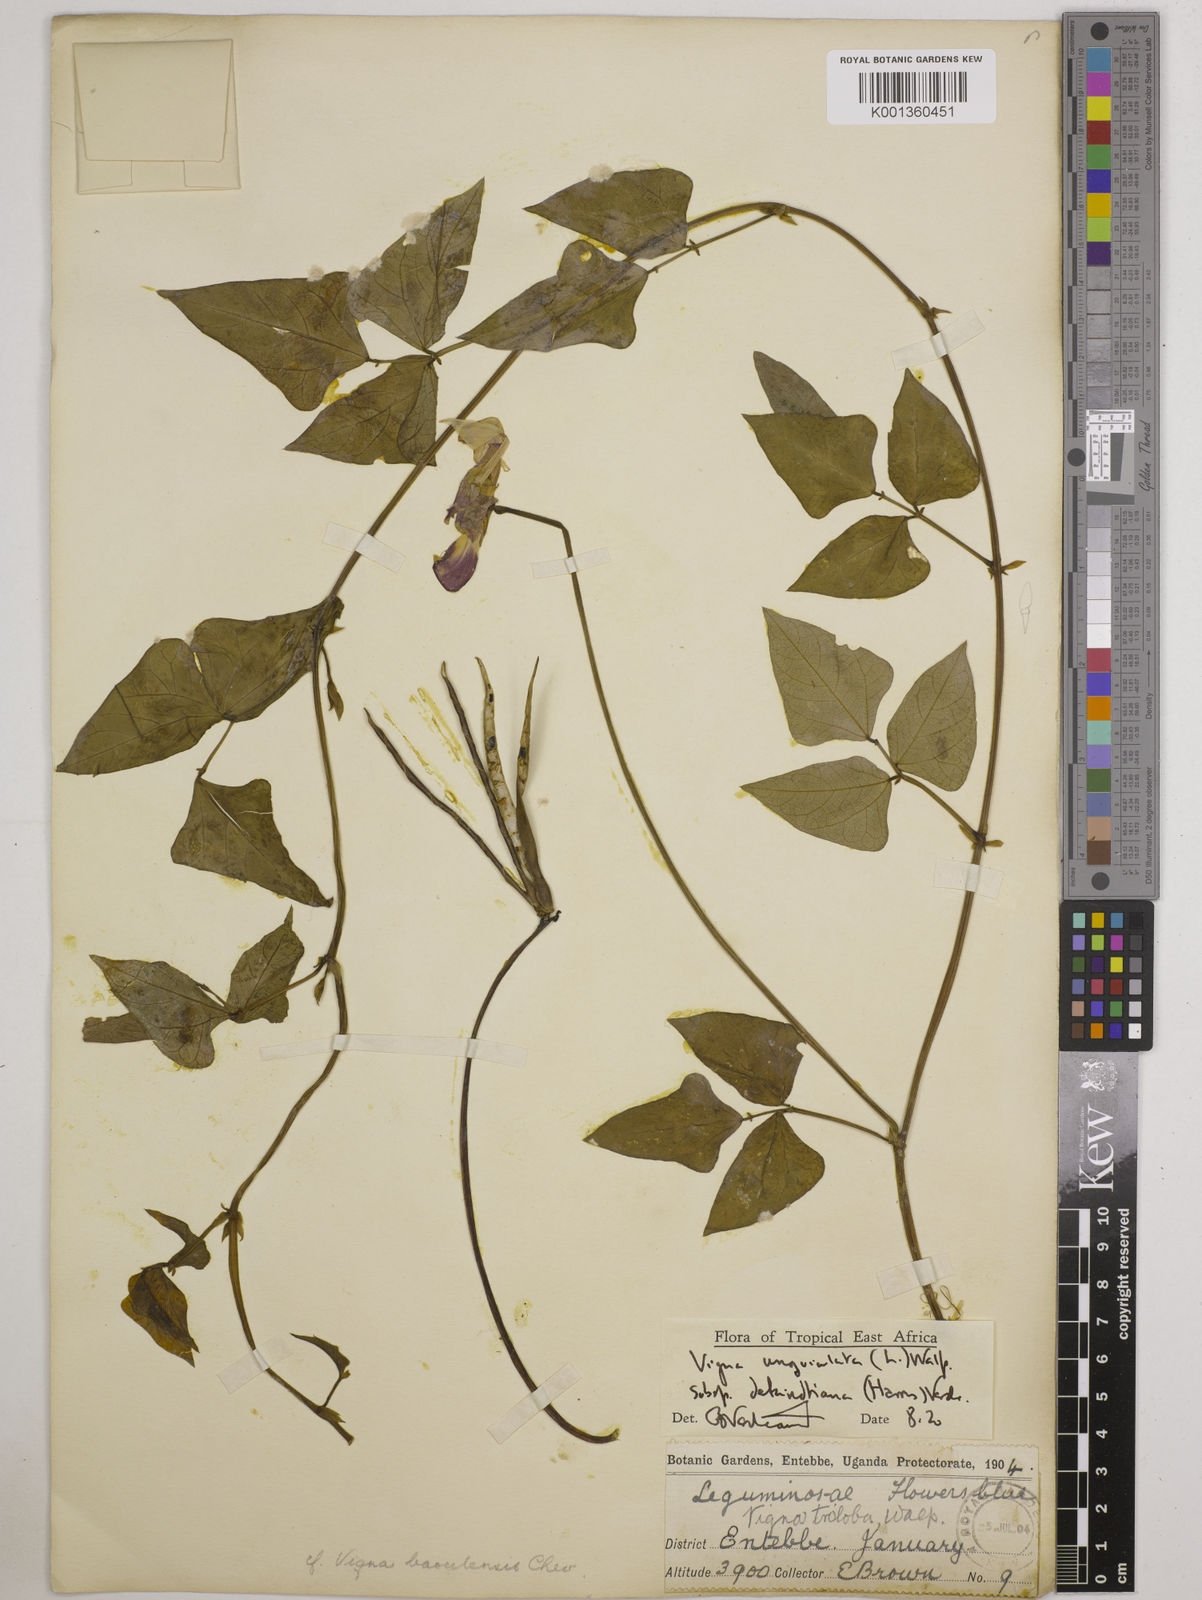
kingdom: Plantae
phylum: Tracheophyta
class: Magnoliopsida
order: Fabales
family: Fabaceae
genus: Vigna
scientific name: Vigna unguiculata
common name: Cowpea
